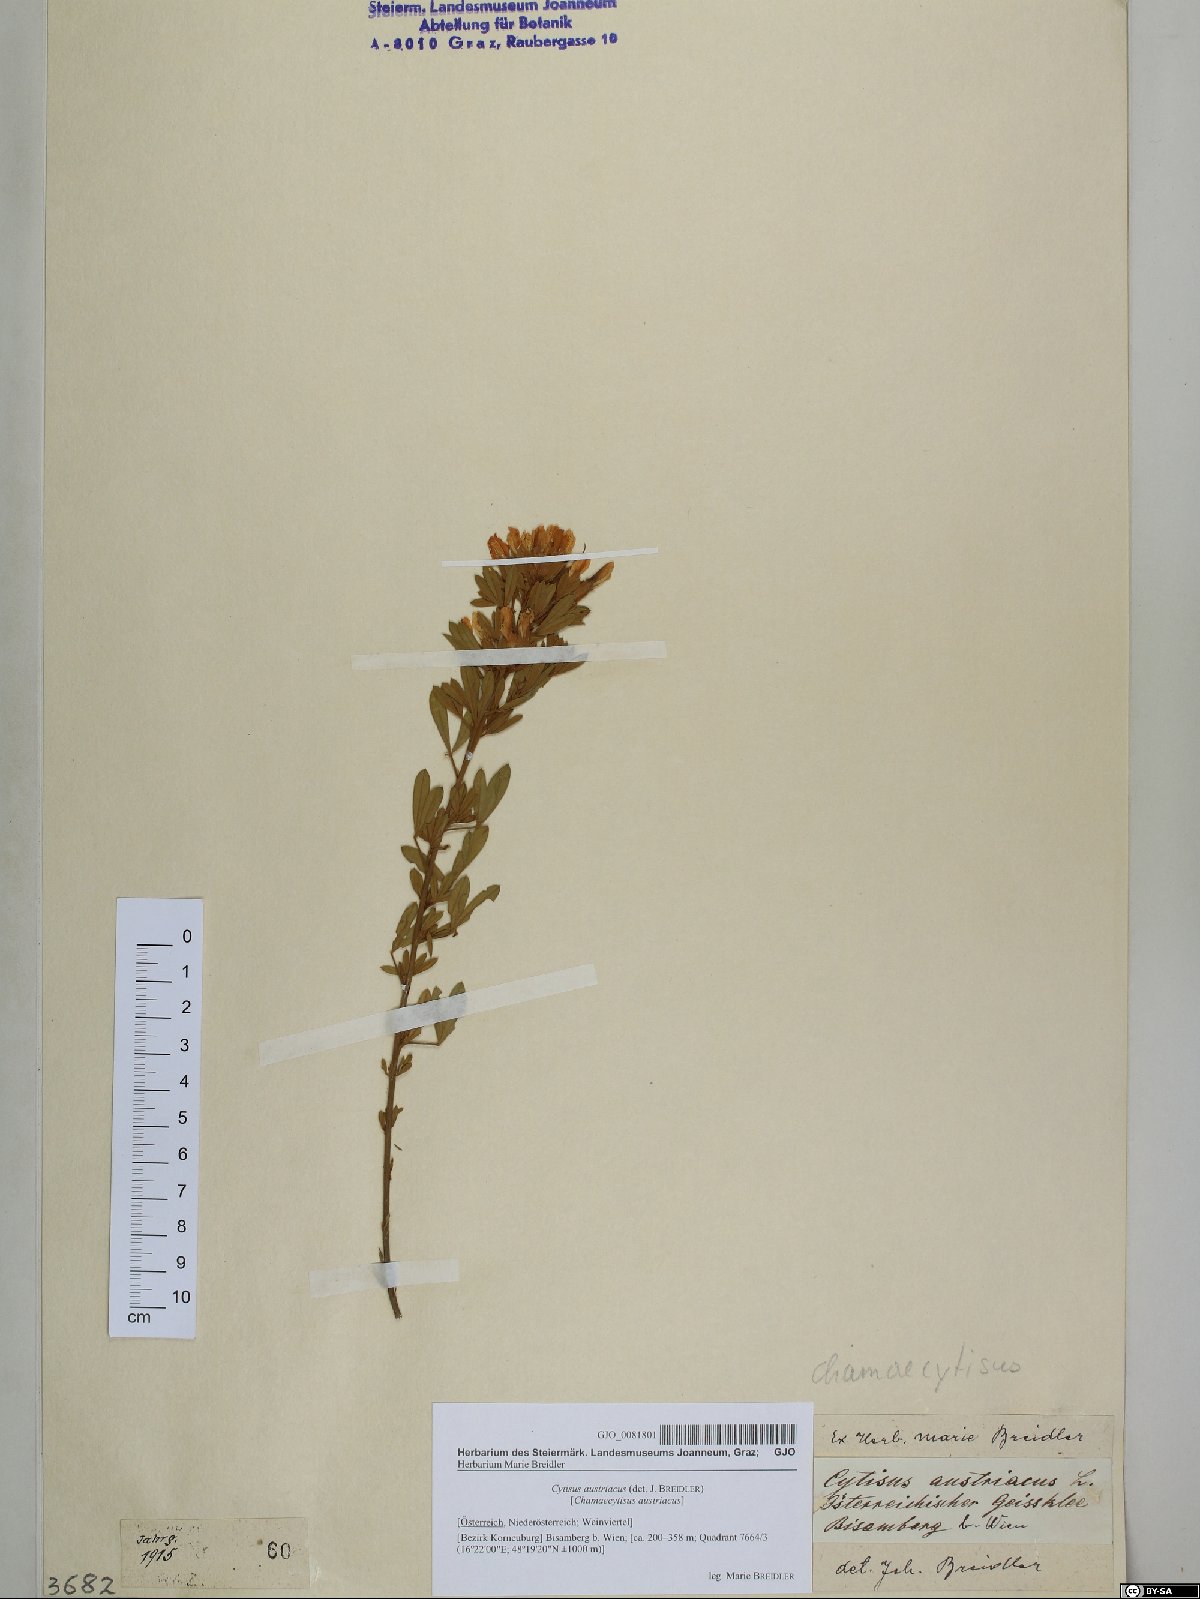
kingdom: Plantae
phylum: Tracheophyta
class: Magnoliopsida
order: Fabales
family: Fabaceae
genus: Chamaecytisus
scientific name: Chamaecytisus austriacus
